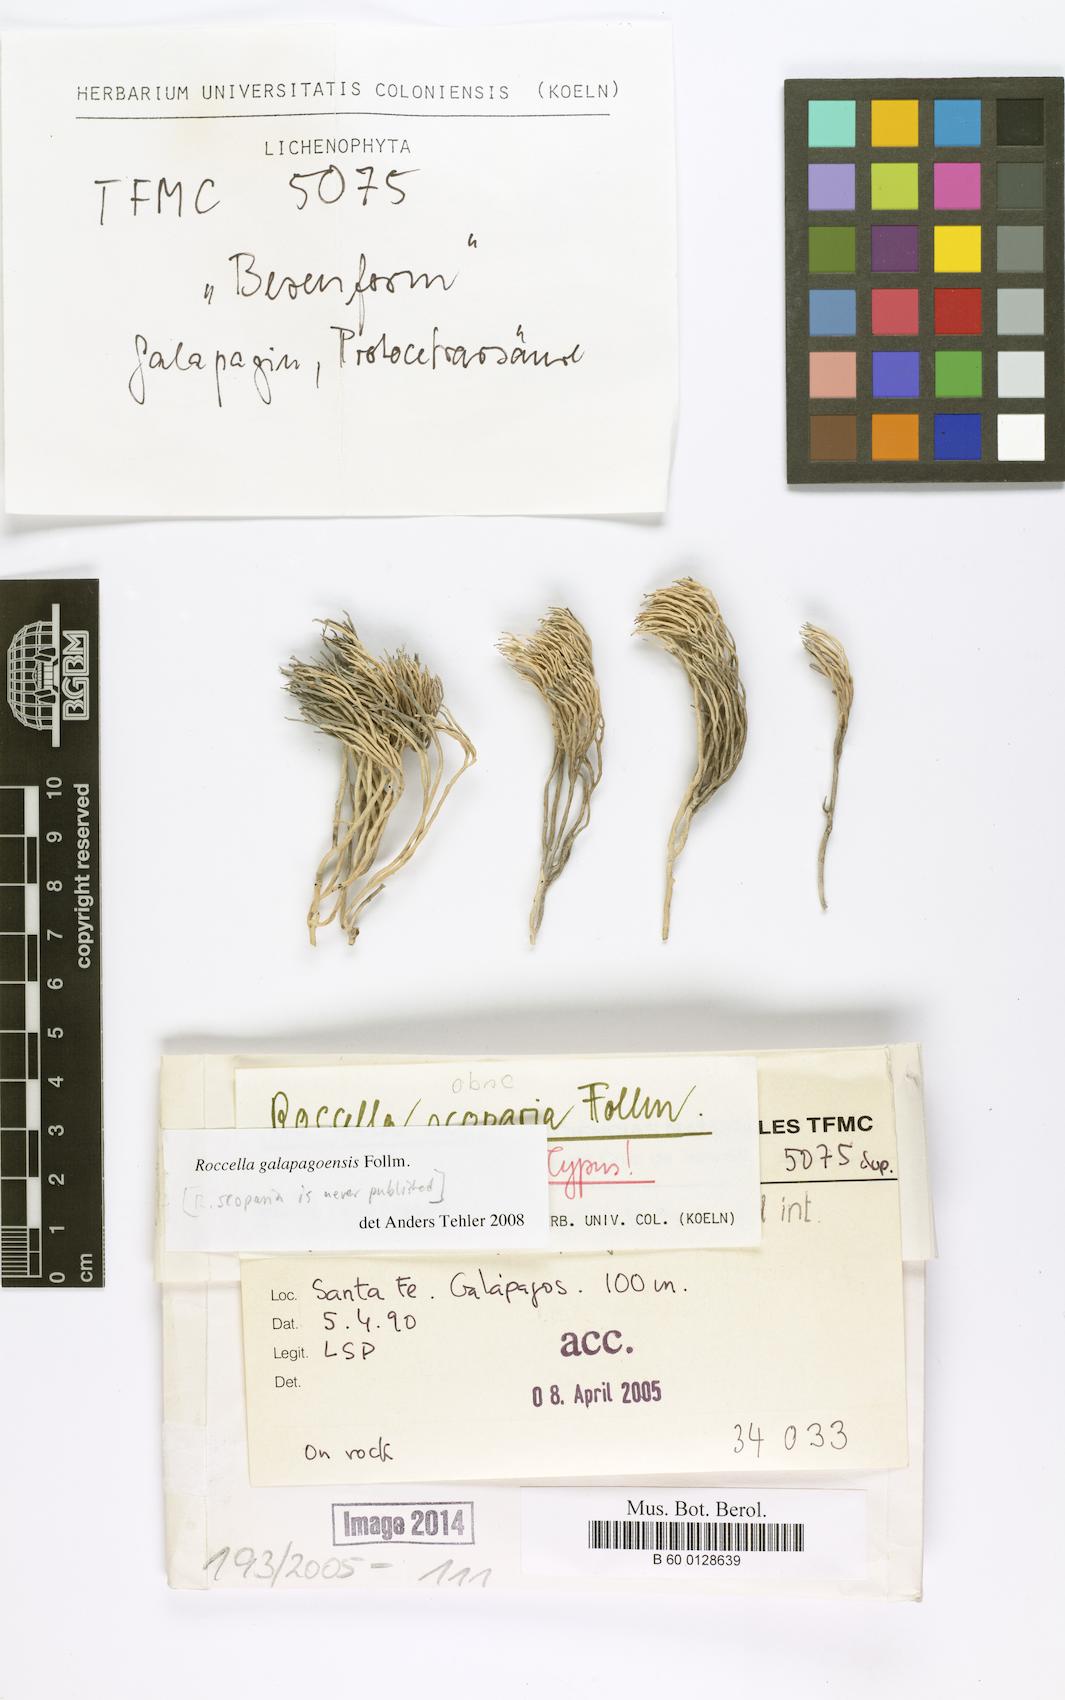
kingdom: Fungi
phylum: Ascomycota
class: Arthoniomycetes
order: Arthoniales
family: Roccellaceae
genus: Roccella
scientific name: Roccella galapagoensis
